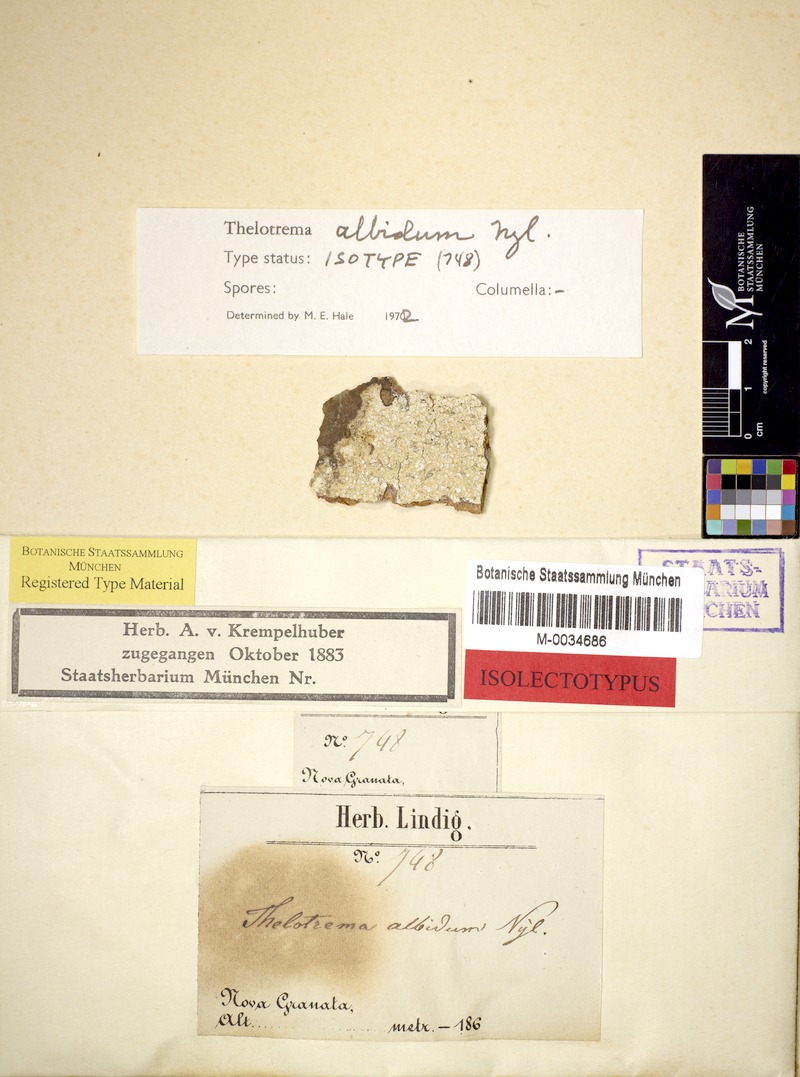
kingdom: Fungi
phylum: Ascomycota
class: Lecanoromycetes
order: Ostropales
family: Graphidaceae
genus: Chapsa
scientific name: Chapsa albida
